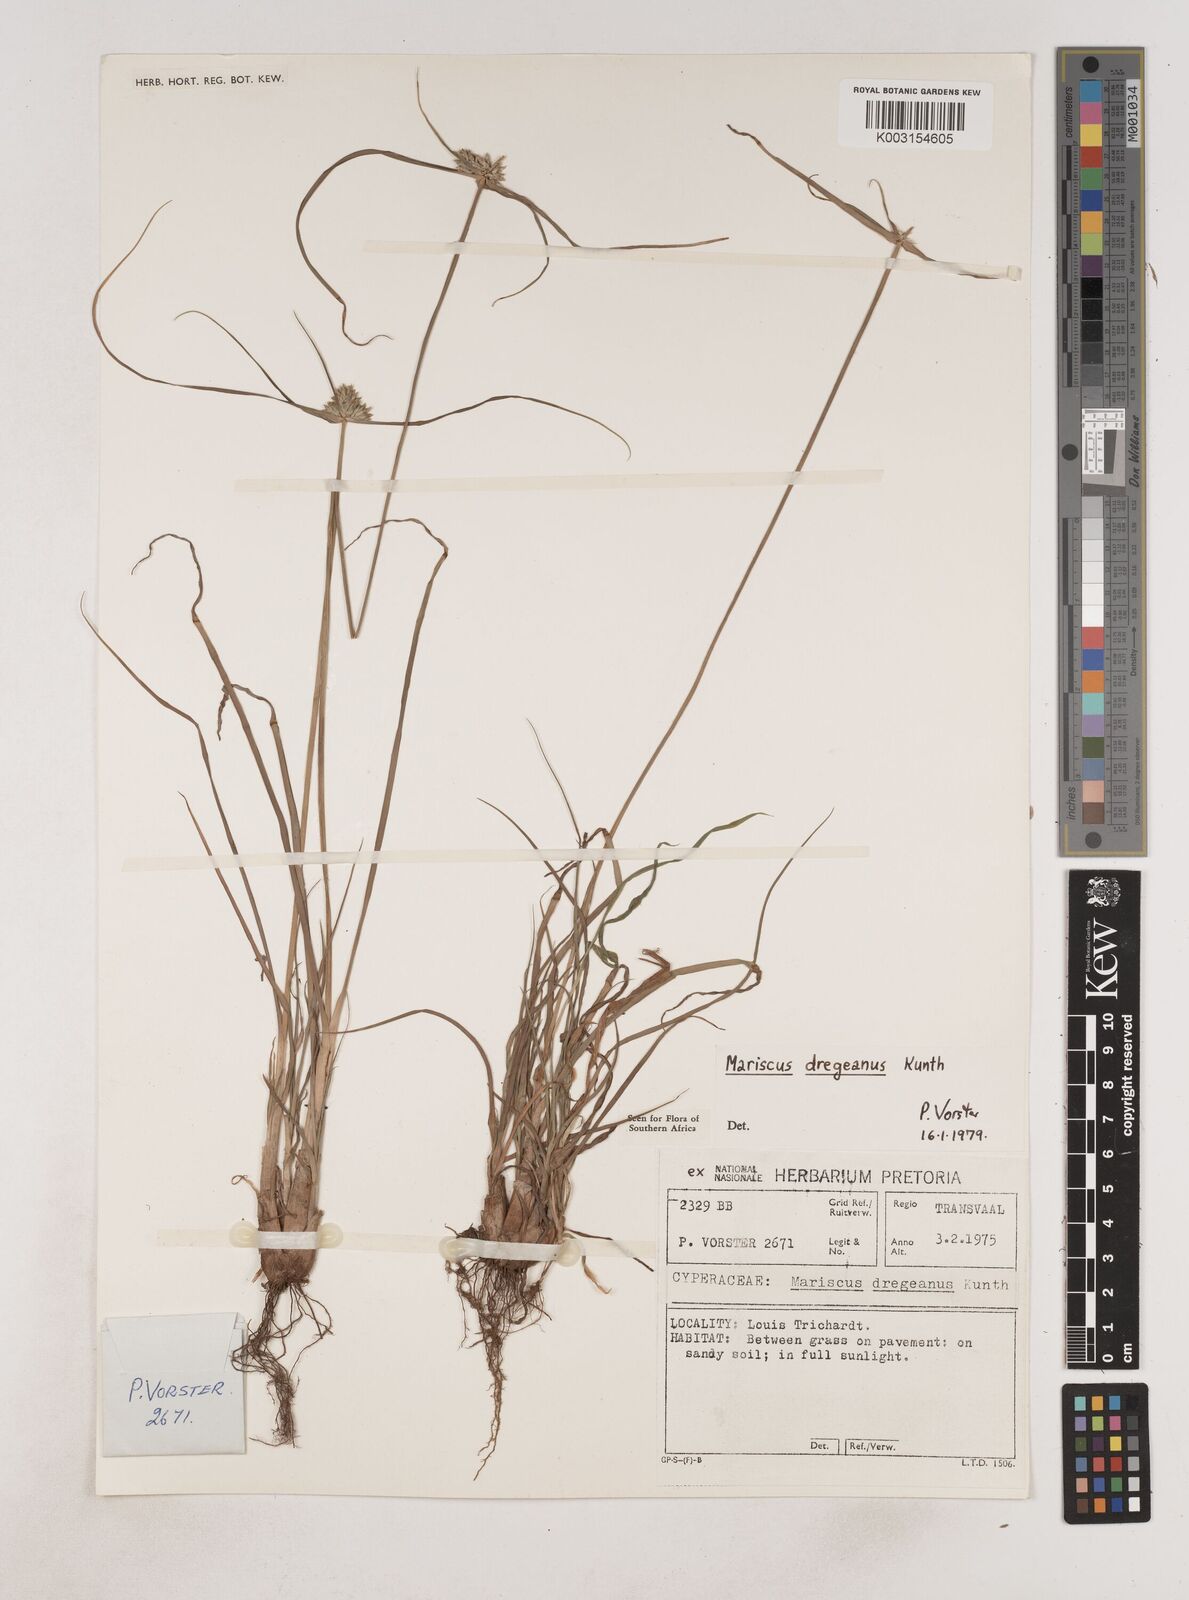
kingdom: Plantae
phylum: Tracheophyta
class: Liliopsida
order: Poales
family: Cyperaceae
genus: Cyperus
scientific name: Cyperus dubius
